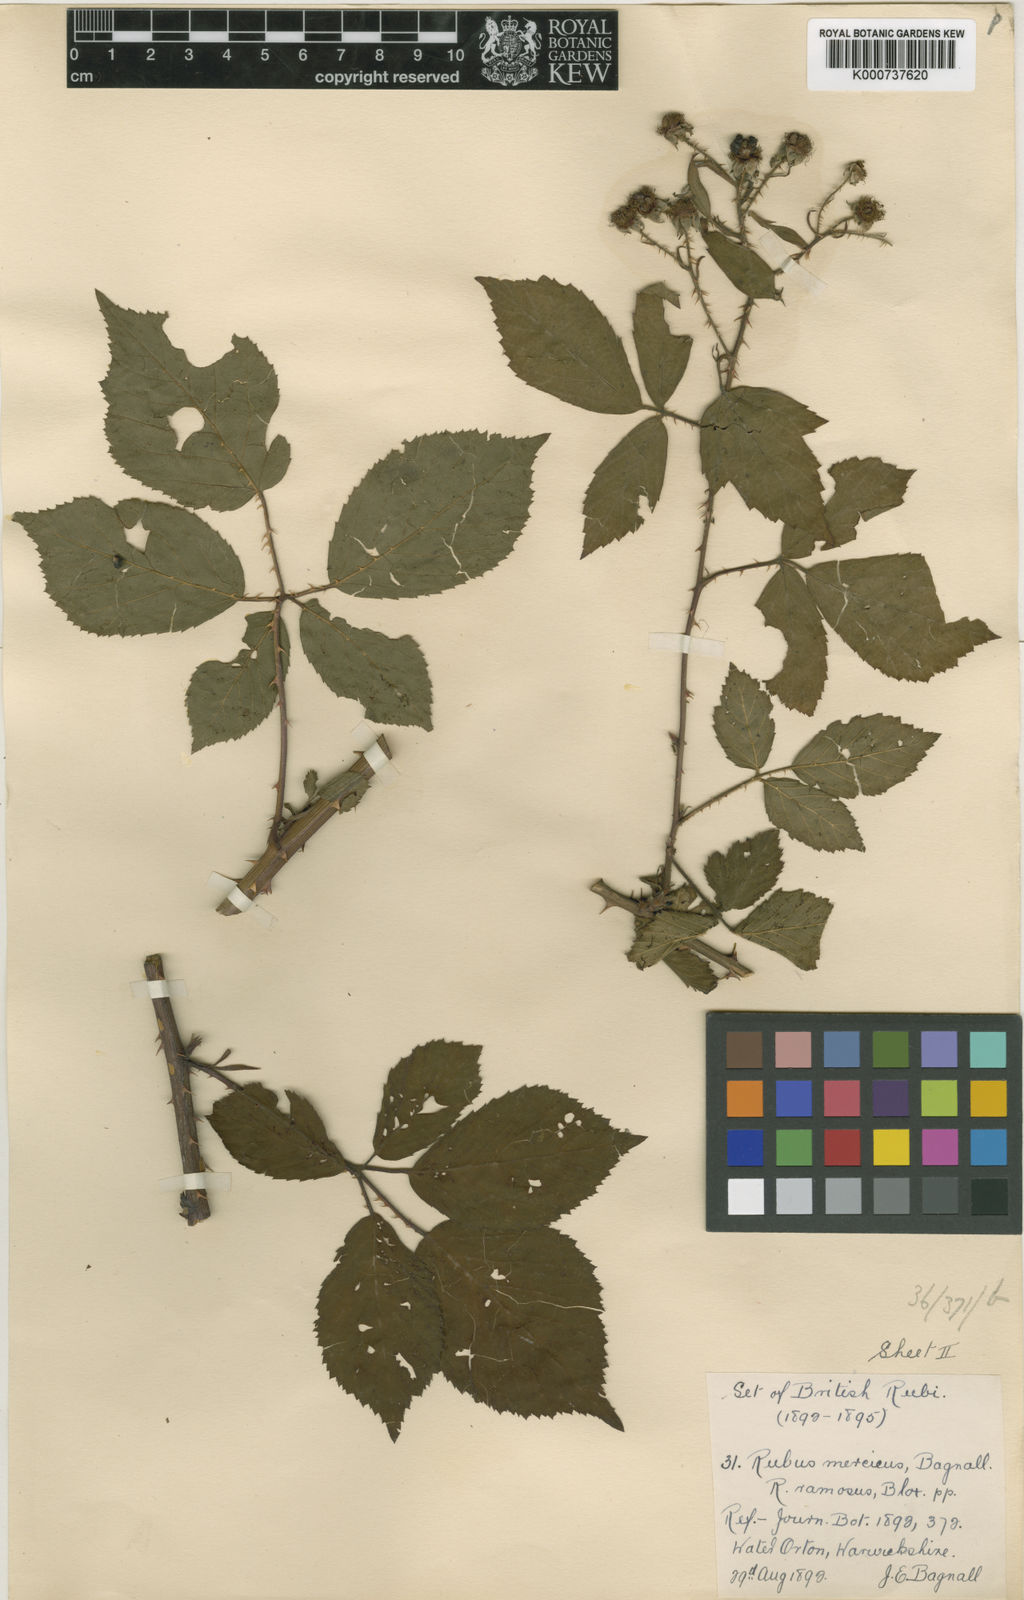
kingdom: Plantae
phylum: Tracheophyta
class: Magnoliopsida
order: Rosales
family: Rosaceae
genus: Rubus
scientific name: Rubus mercicus
